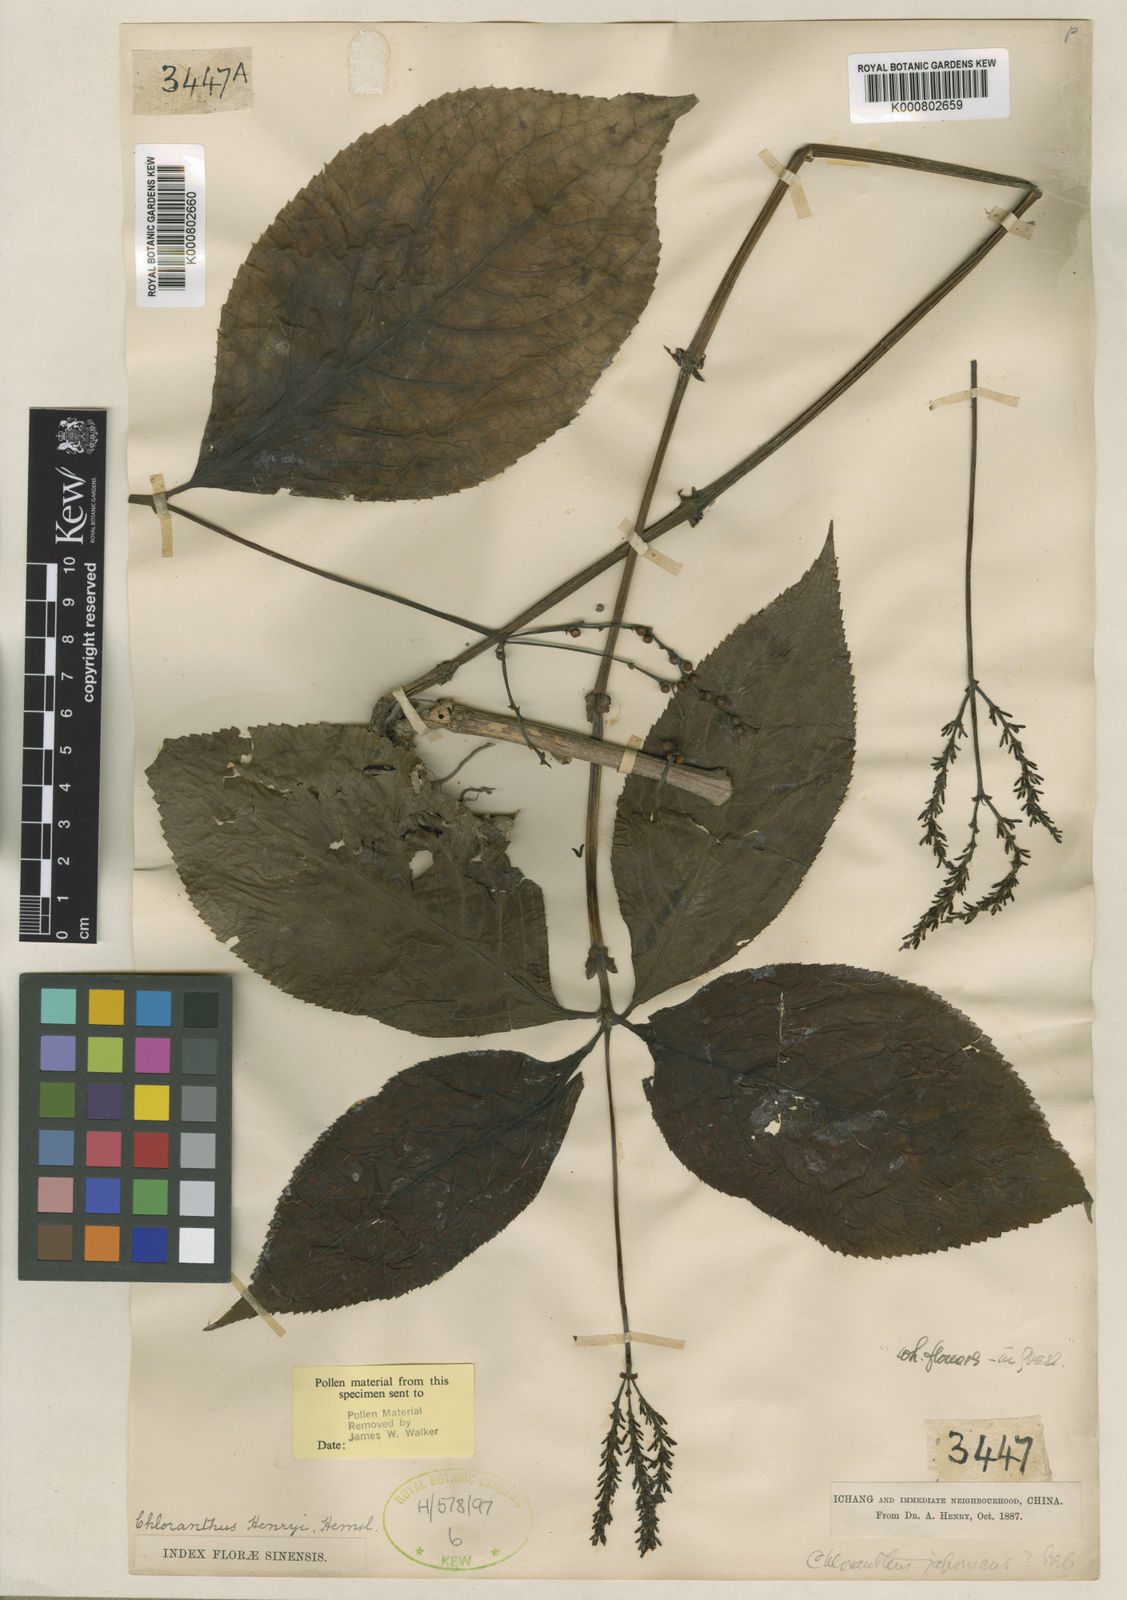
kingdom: Plantae
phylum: Tracheophyta
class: Magnoliopsida
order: Chloranthales
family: Chloranthaceae
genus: Chloranthus
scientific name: Chloranthus holostegius
